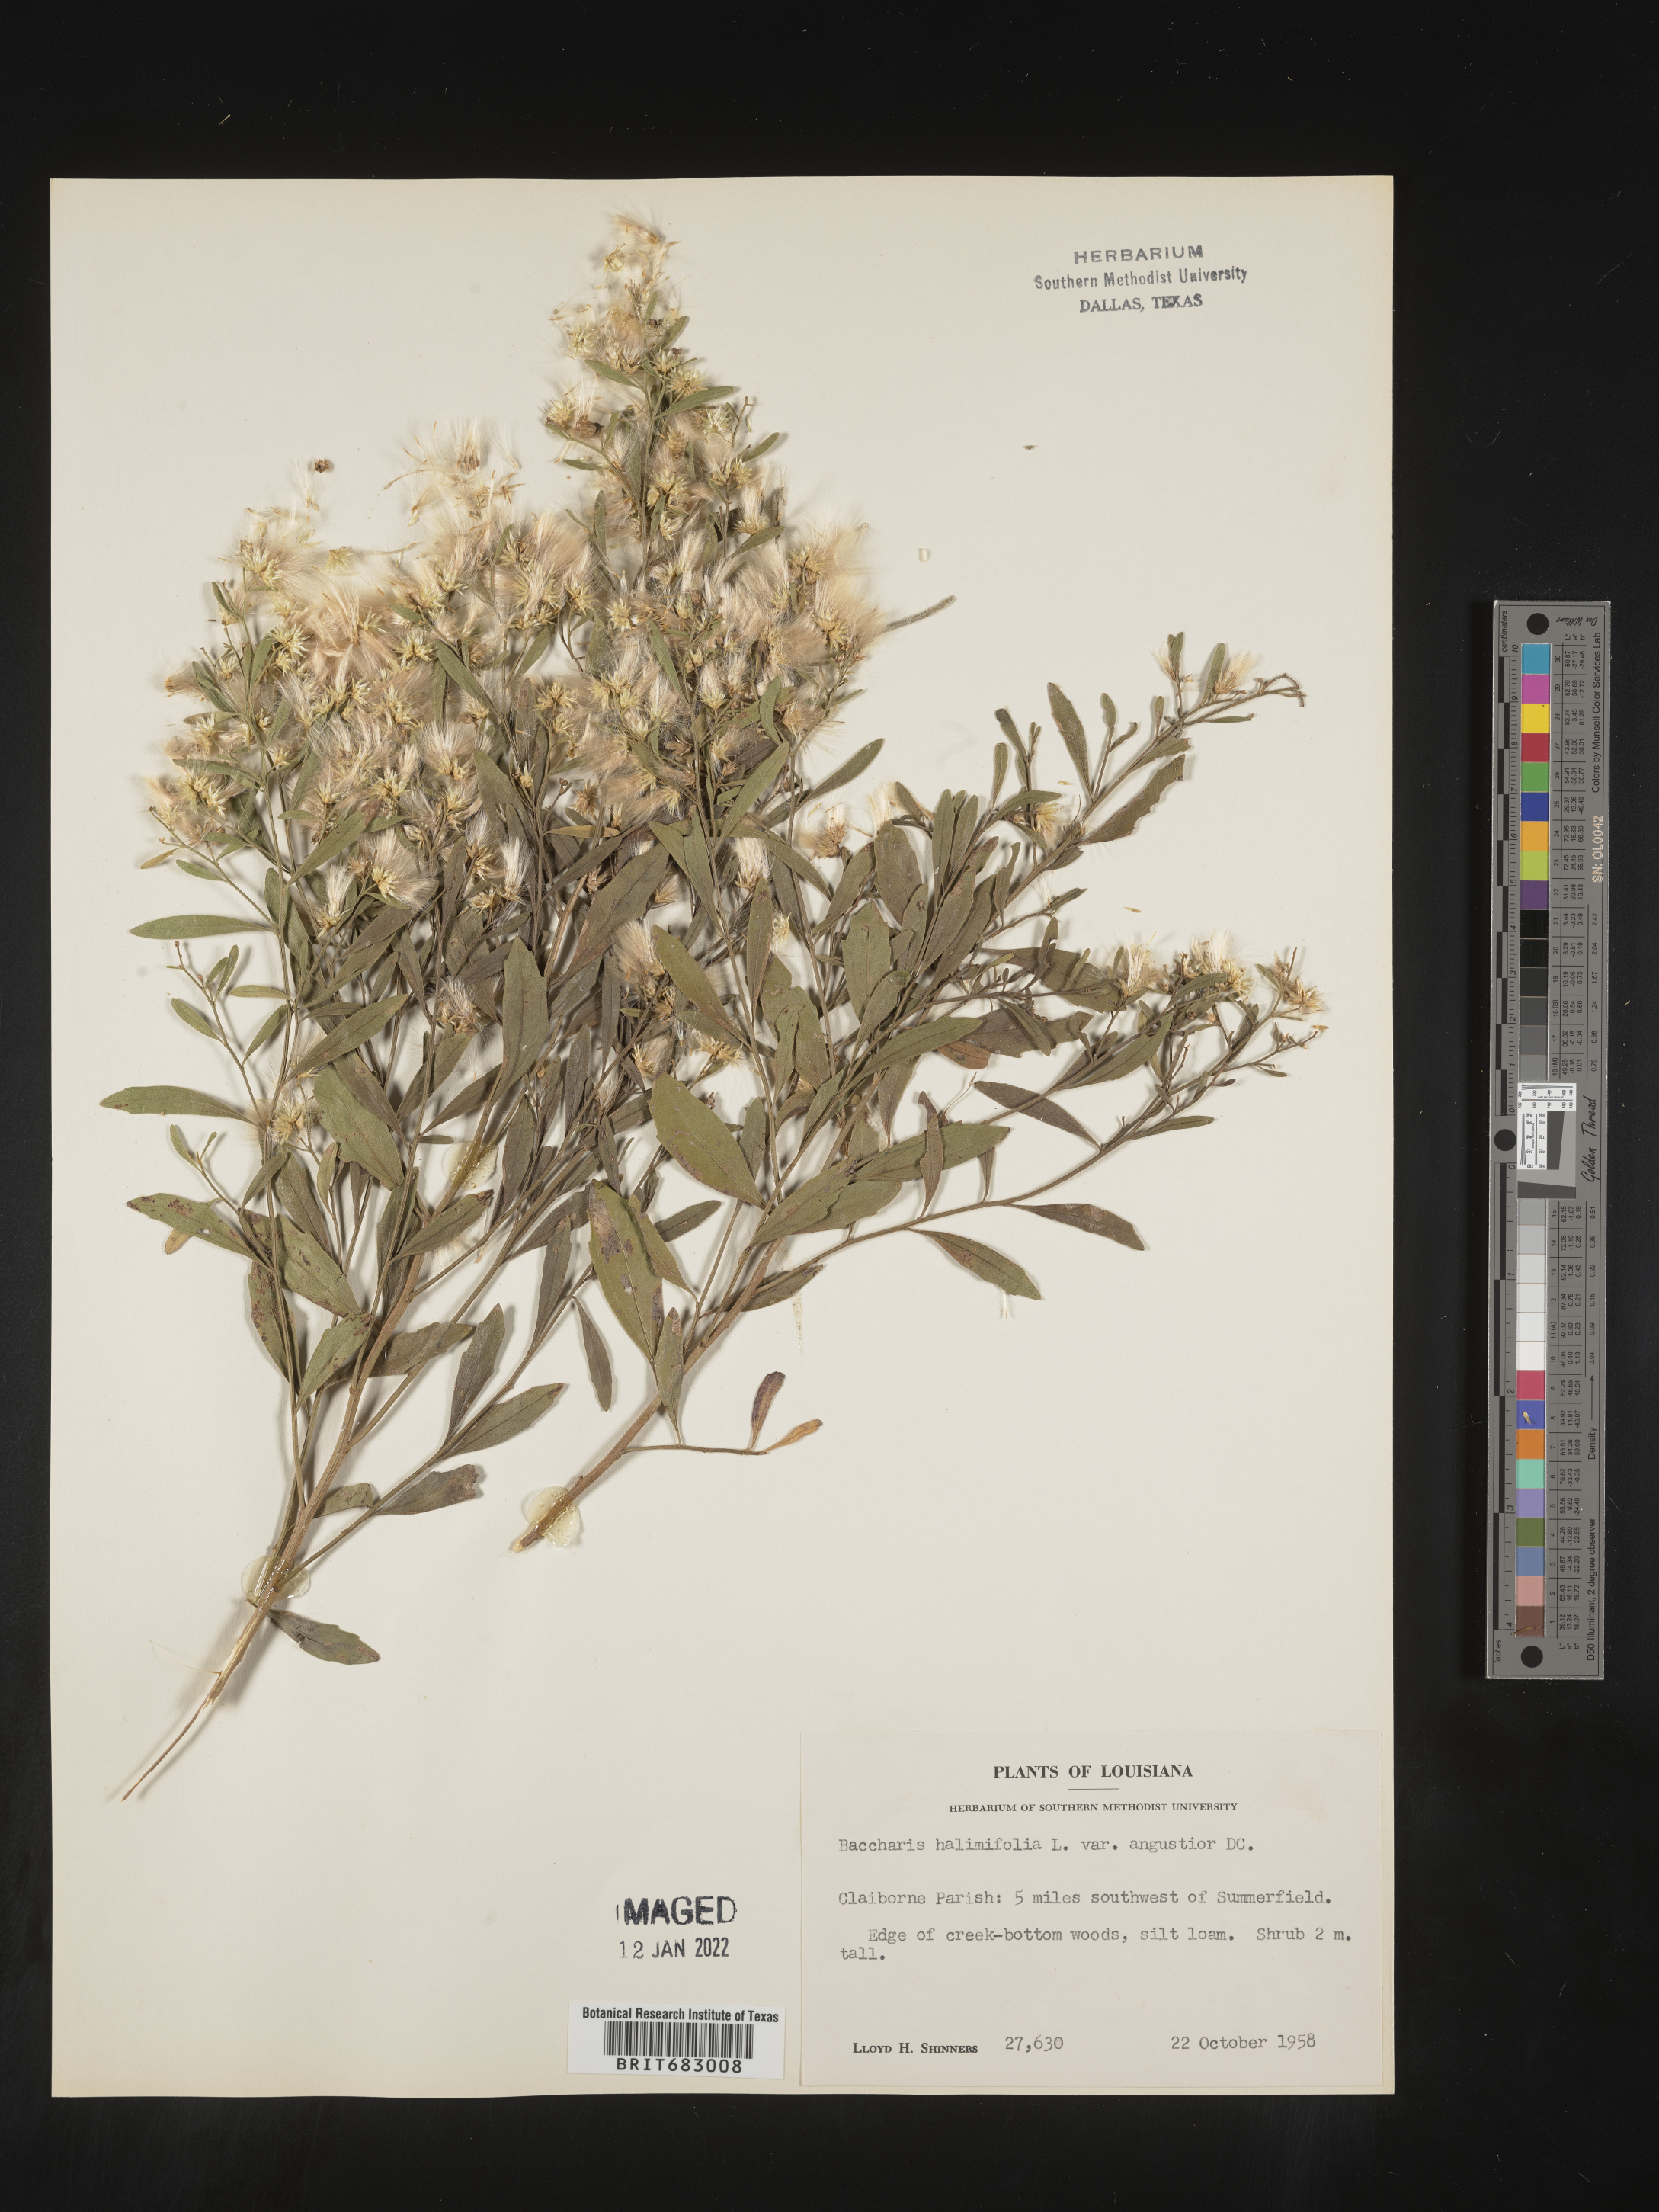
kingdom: Plantae
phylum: Tracheophyta
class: Magnoliopsida
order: Asterales
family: Asteraceae
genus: Nidorella
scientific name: Nidorella ivifolia
